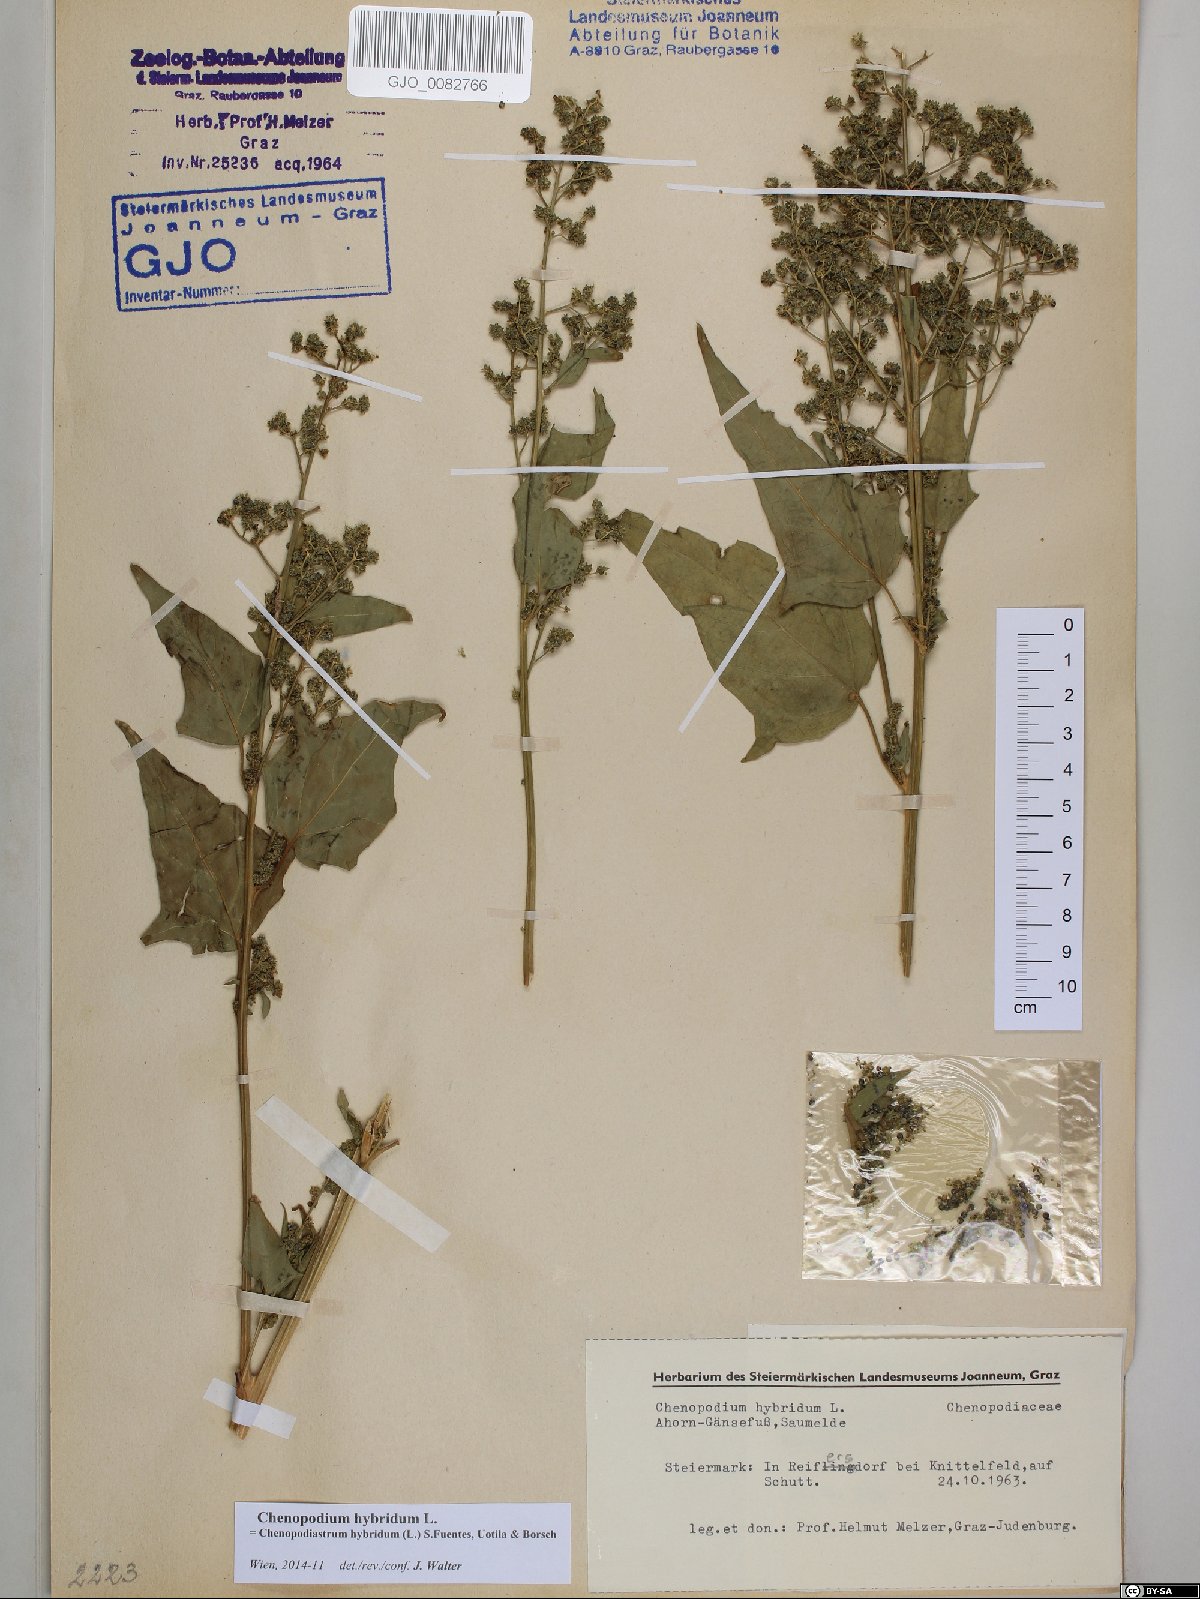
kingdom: Plantae
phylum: Tracheophyta
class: Magnoliopsida
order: Caryophyllales
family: Amaranthaceae
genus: Chenopodiastrum
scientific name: Chenopodiastrum hybridum
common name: Mapleleaf goosefoot
